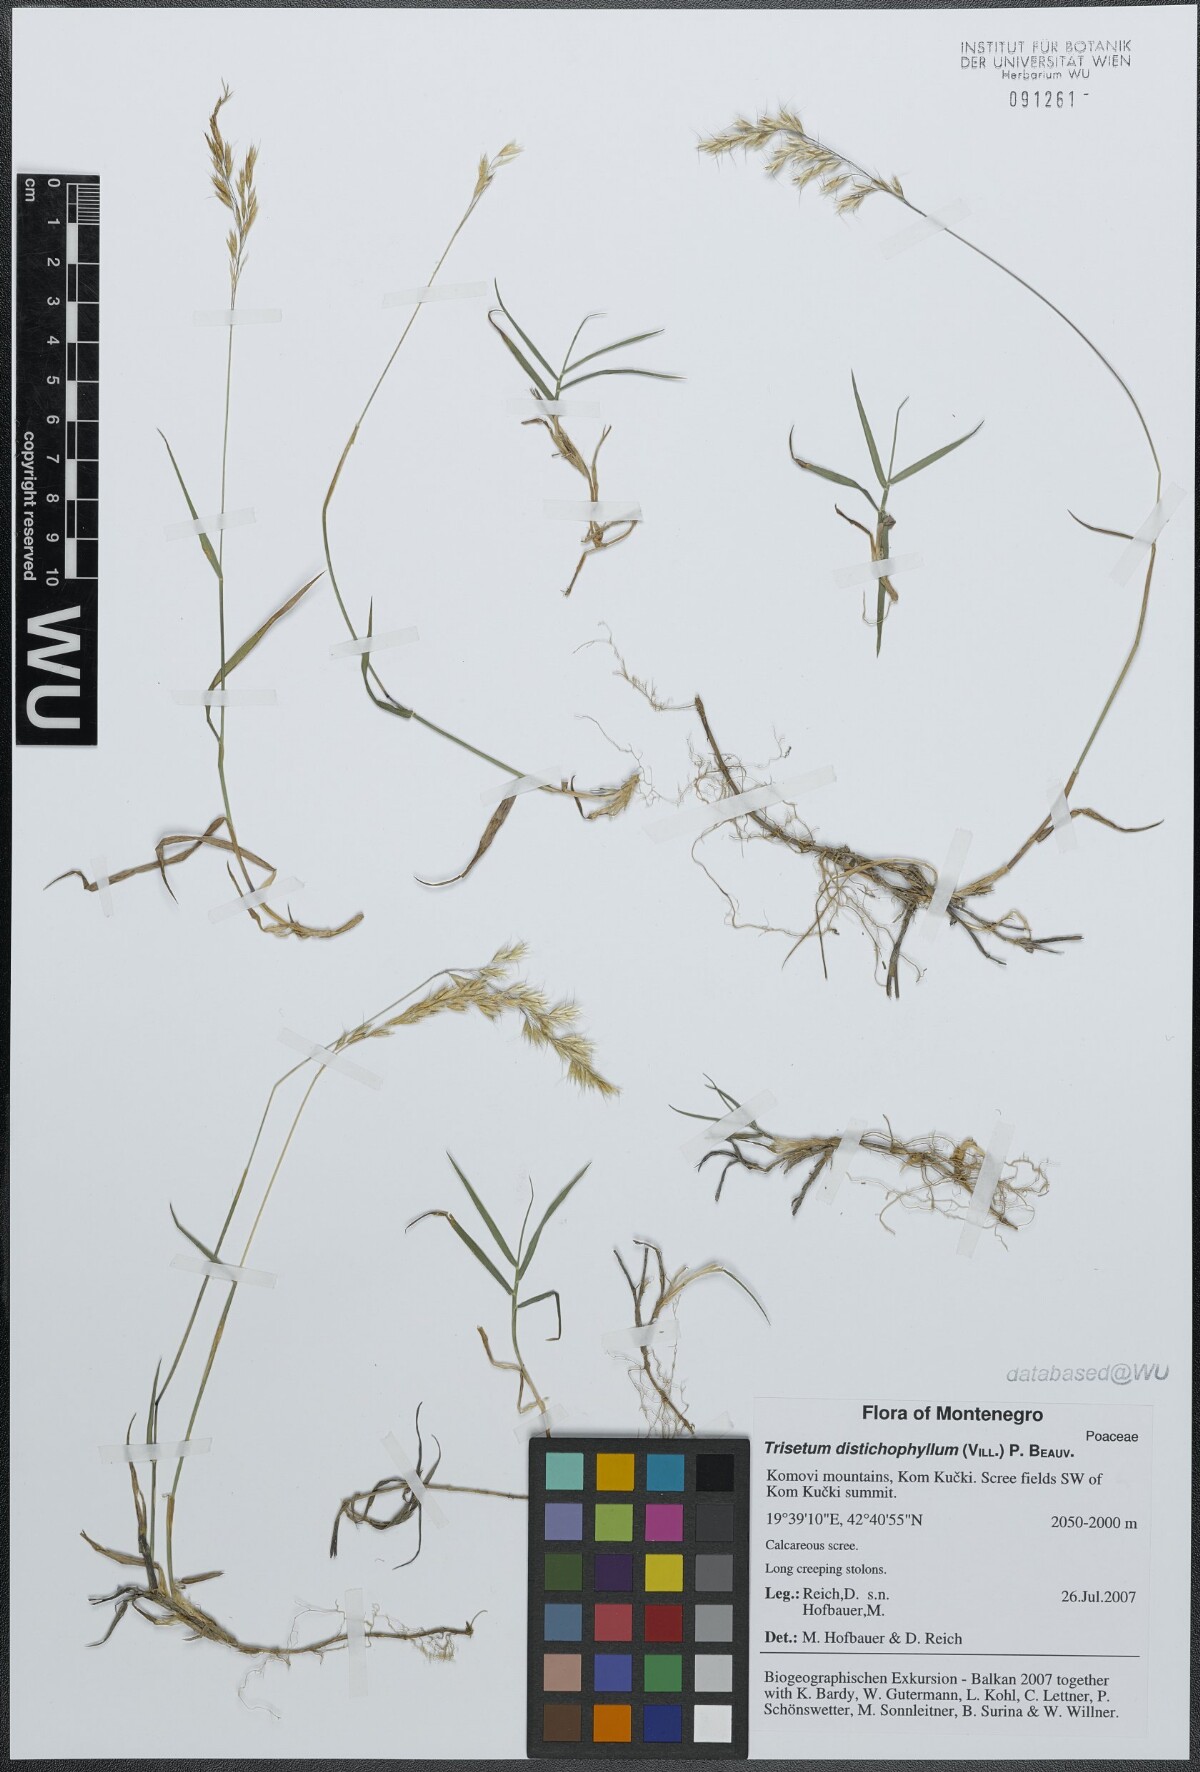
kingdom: Plantae
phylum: Tracheophyta
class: Liliopsida
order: Poales
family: Poaceae
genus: Acrospelion
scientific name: Acrospelion distichophyllum
